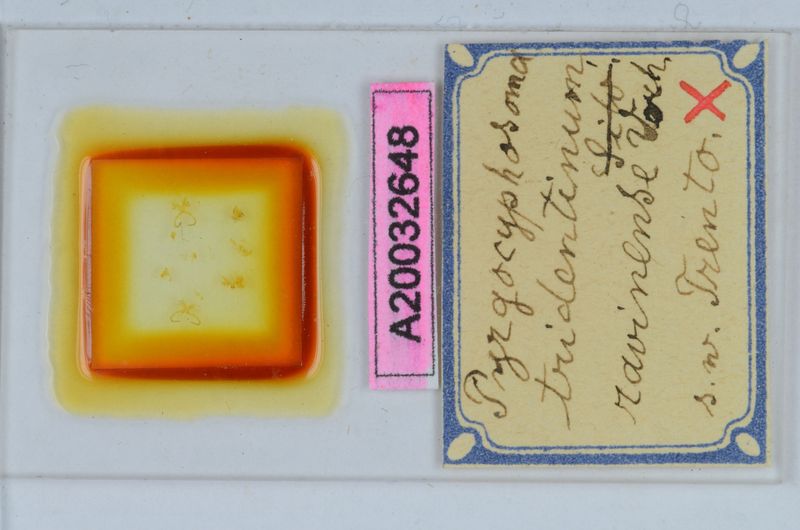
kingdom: Animalia
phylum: Arthropoda
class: Diplopoda
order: Chordeumatida
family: Craspedosomatidae
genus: Pyrgocyphosoma
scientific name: Pyrgocyphosoma ravinense
